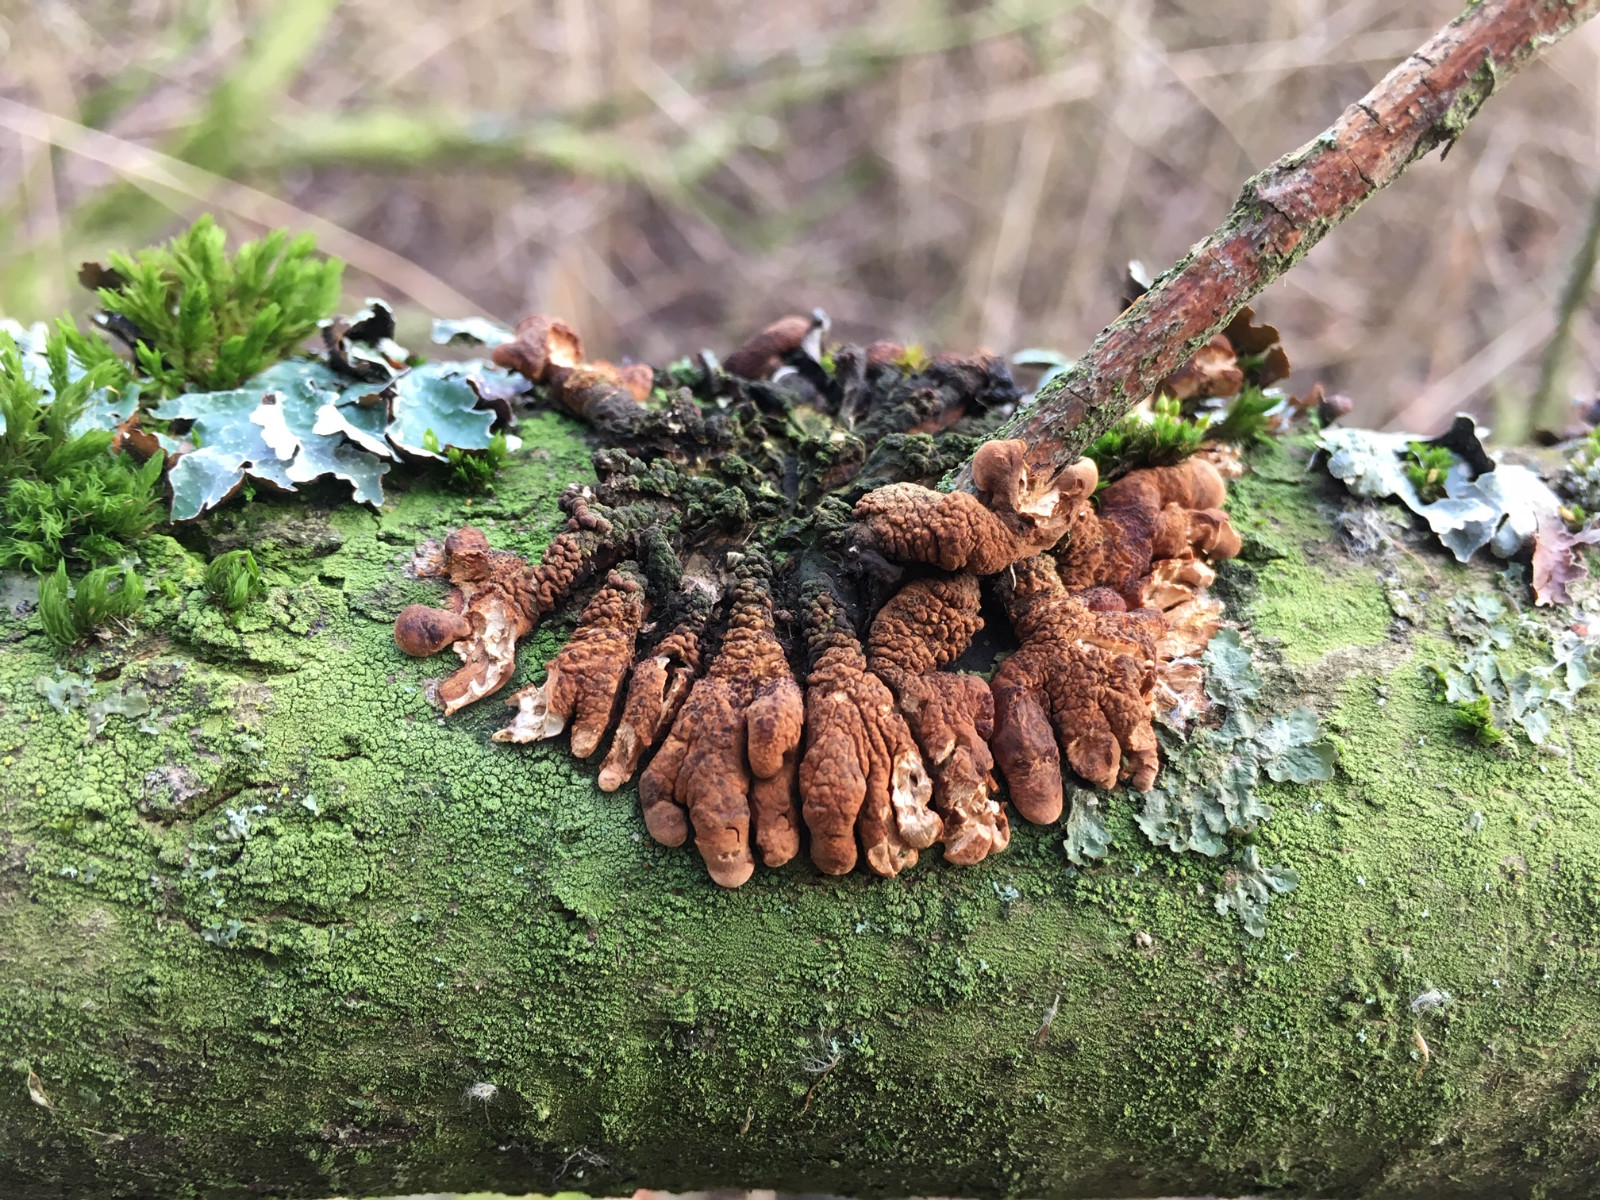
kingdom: Fungi
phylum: Ascomycota
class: Sordariomycetes
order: Hypocreales
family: Hypocreaceae
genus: Hypocreopsis
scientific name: Hypocreopsis lichenoides
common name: pilfinger
